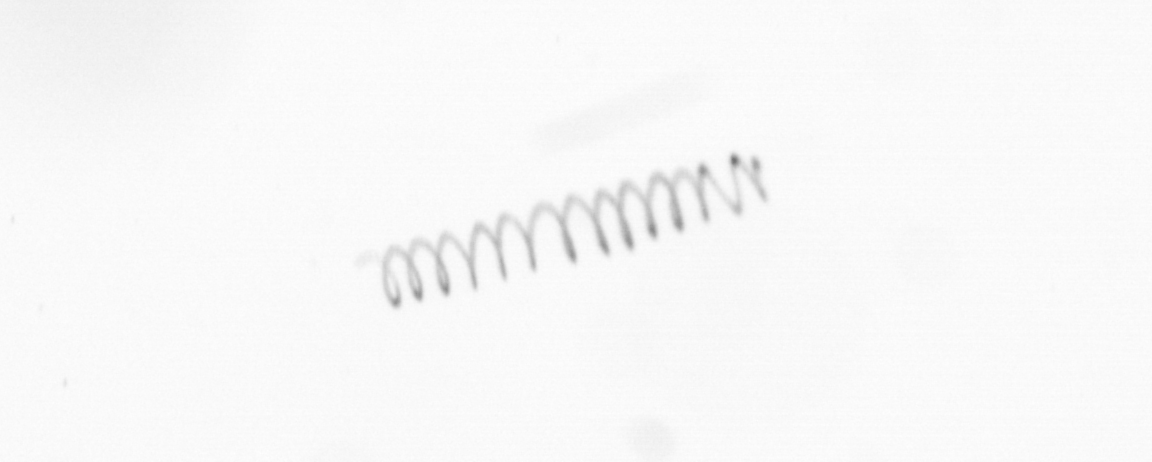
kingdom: Chromista
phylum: Ochrophyta
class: Bacillariophyceae
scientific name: Bacillariophyceae
